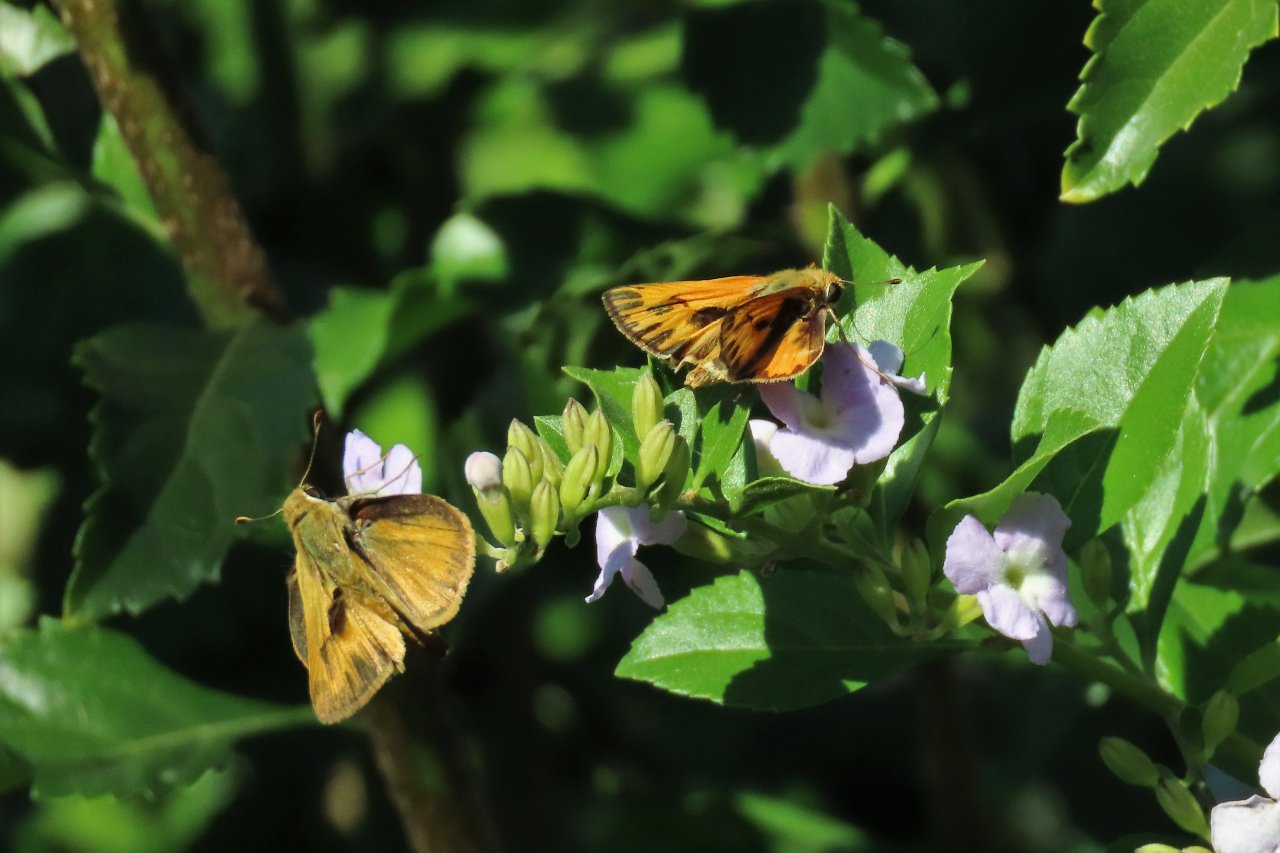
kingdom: Animalia
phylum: Arthropoda
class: Insecta
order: Lepidoptera
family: Hesperiidae
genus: Hylephila
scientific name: Hylephila phyleus
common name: Fiery Skipper
